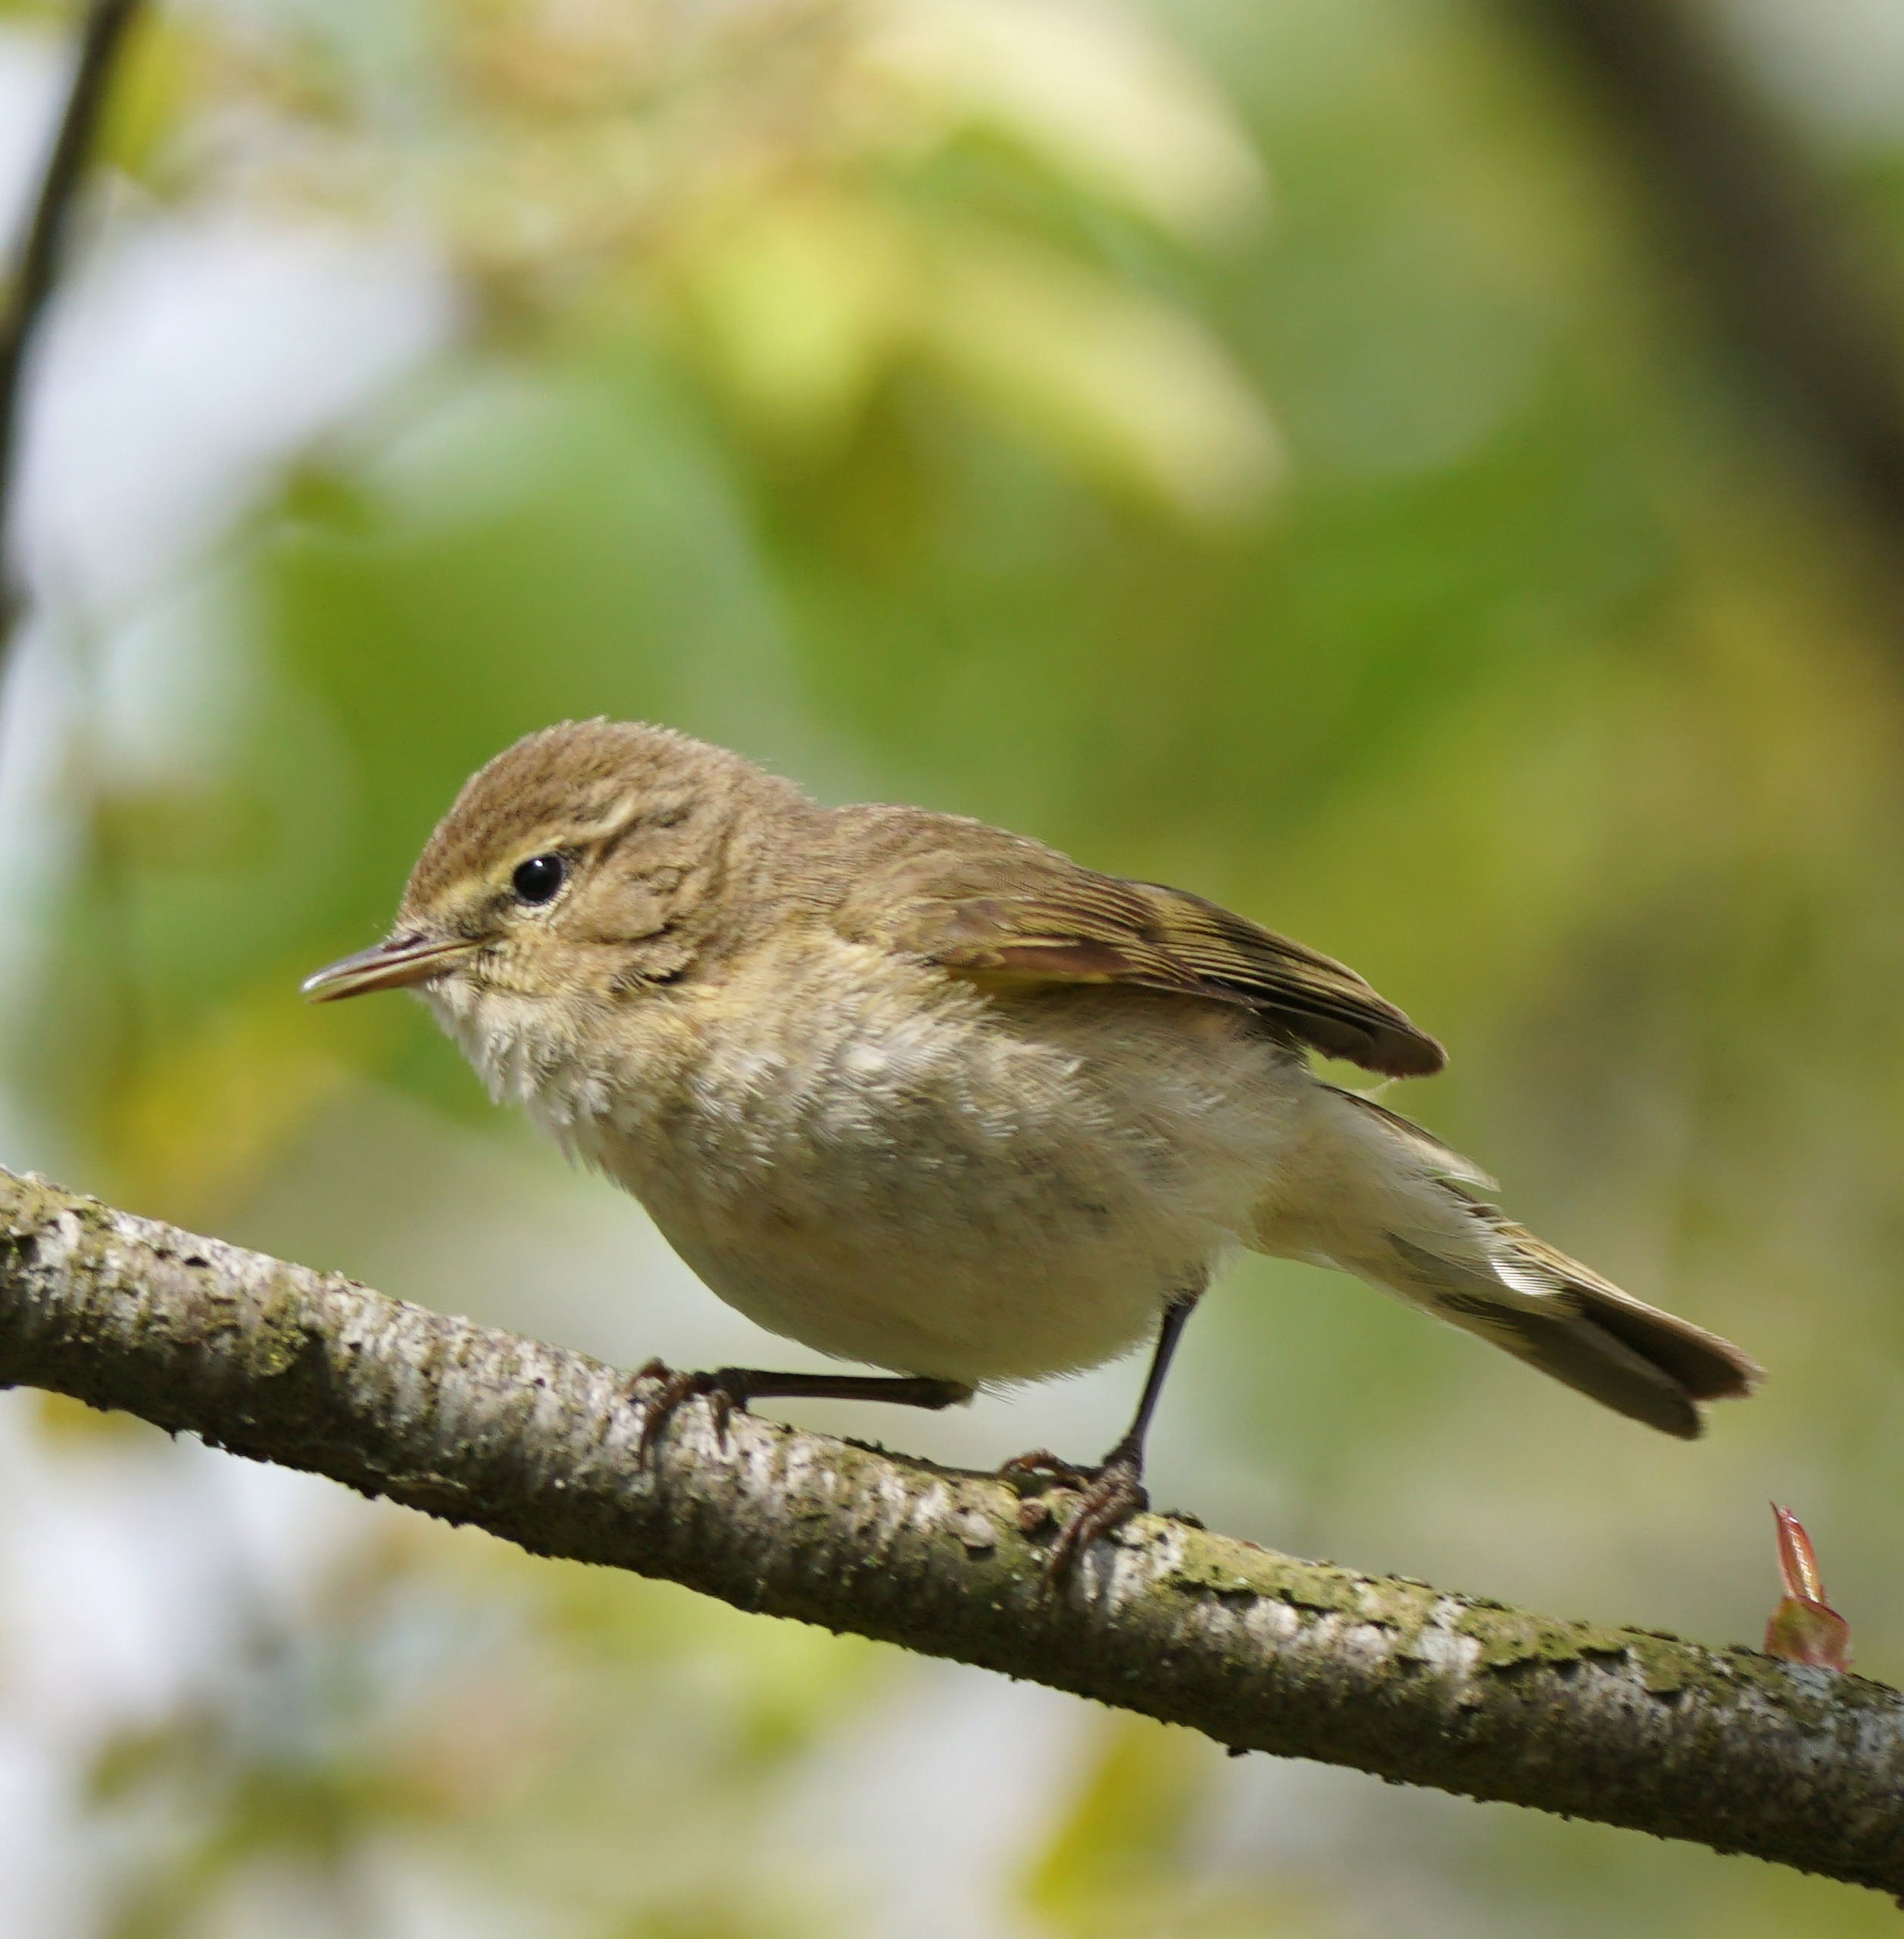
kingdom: Animalia
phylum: Chordata
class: Aves
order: Passeriformes
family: Phylloscopidae
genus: Phylloscopus
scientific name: Phylloscopus collybita
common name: Gransanger
